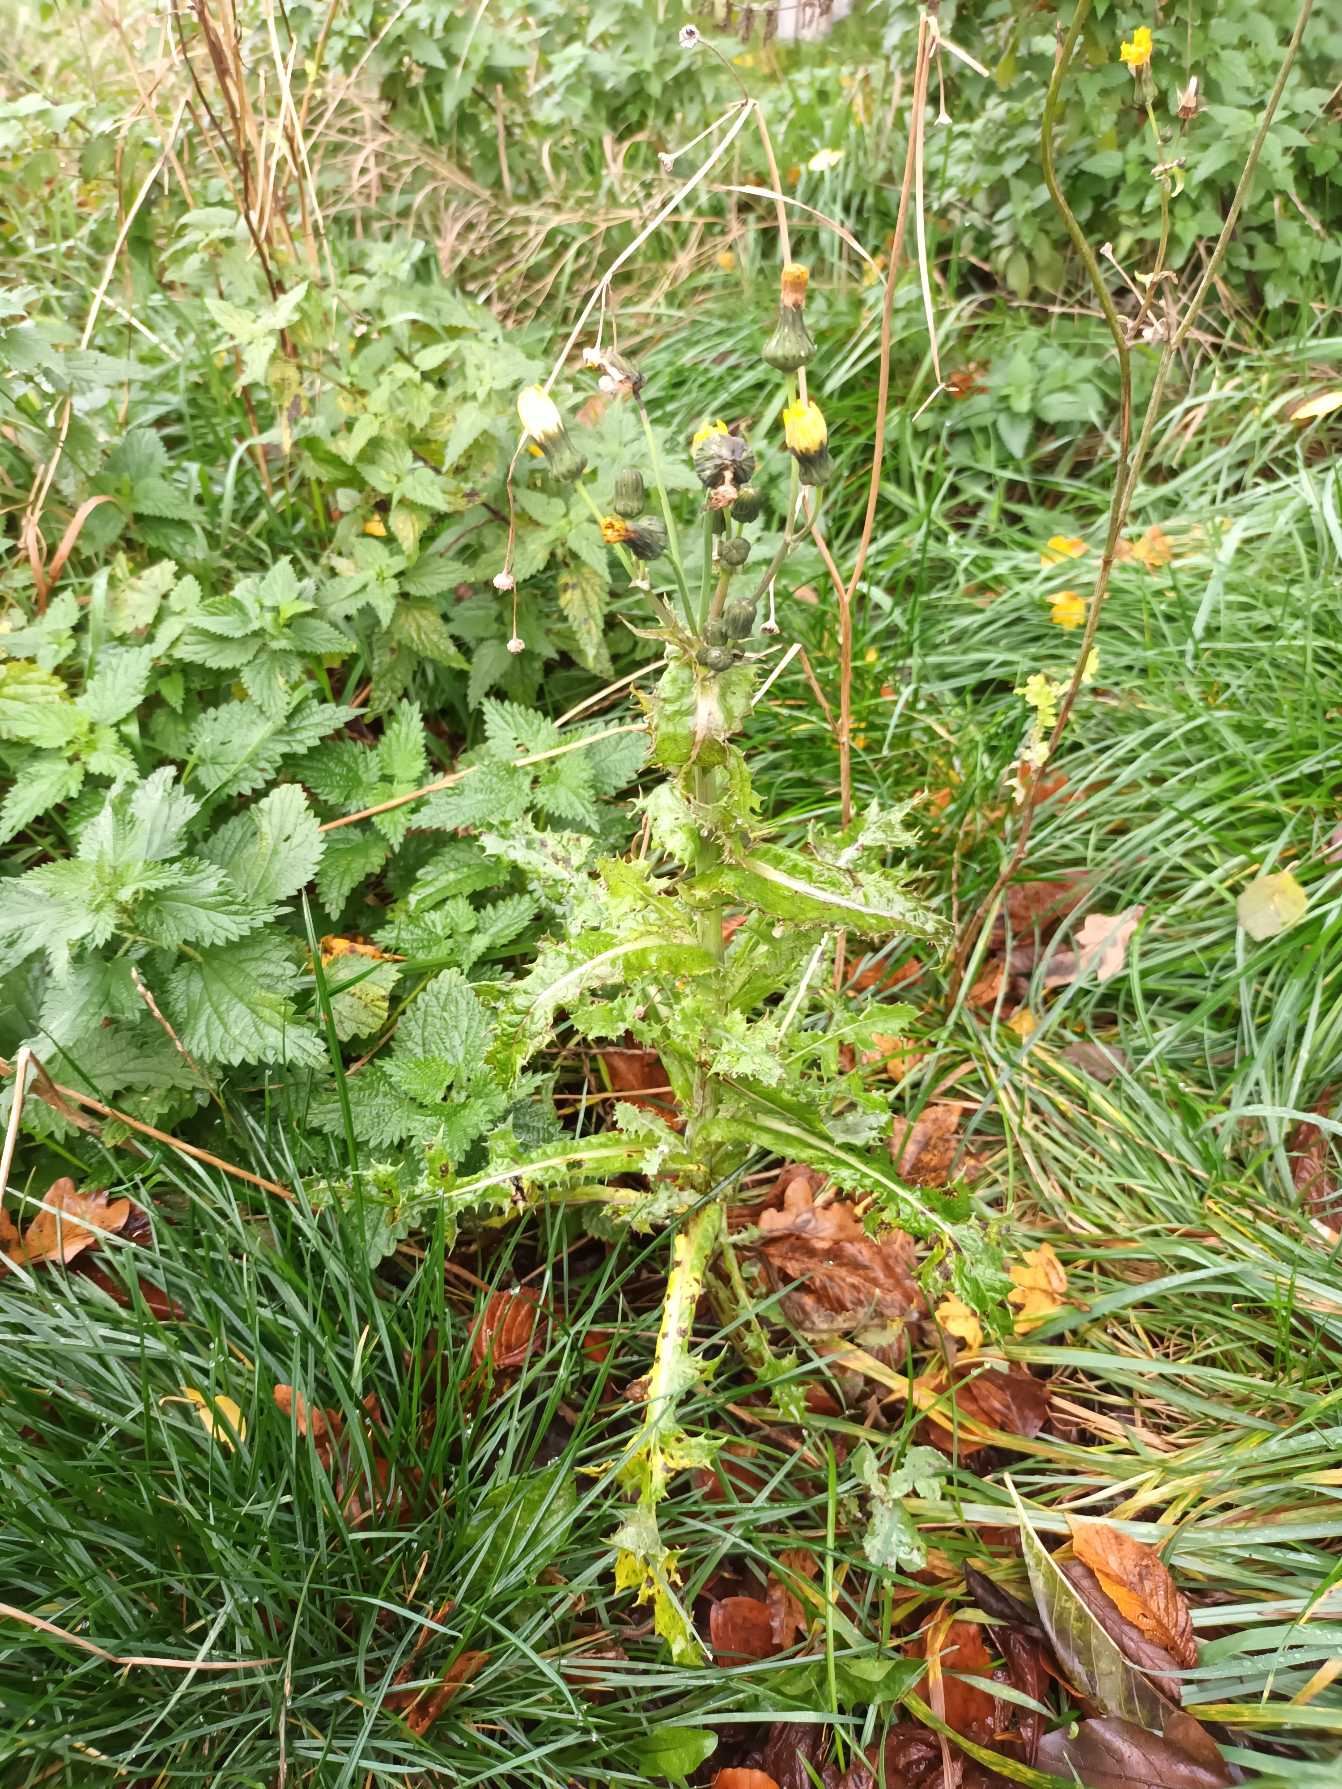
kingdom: Plantae
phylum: Tracheophyta
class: Magnoliopsida
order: Asterales
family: Asteraceae
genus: Sonchus
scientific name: Sonchus asper
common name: Ru svinemælk
